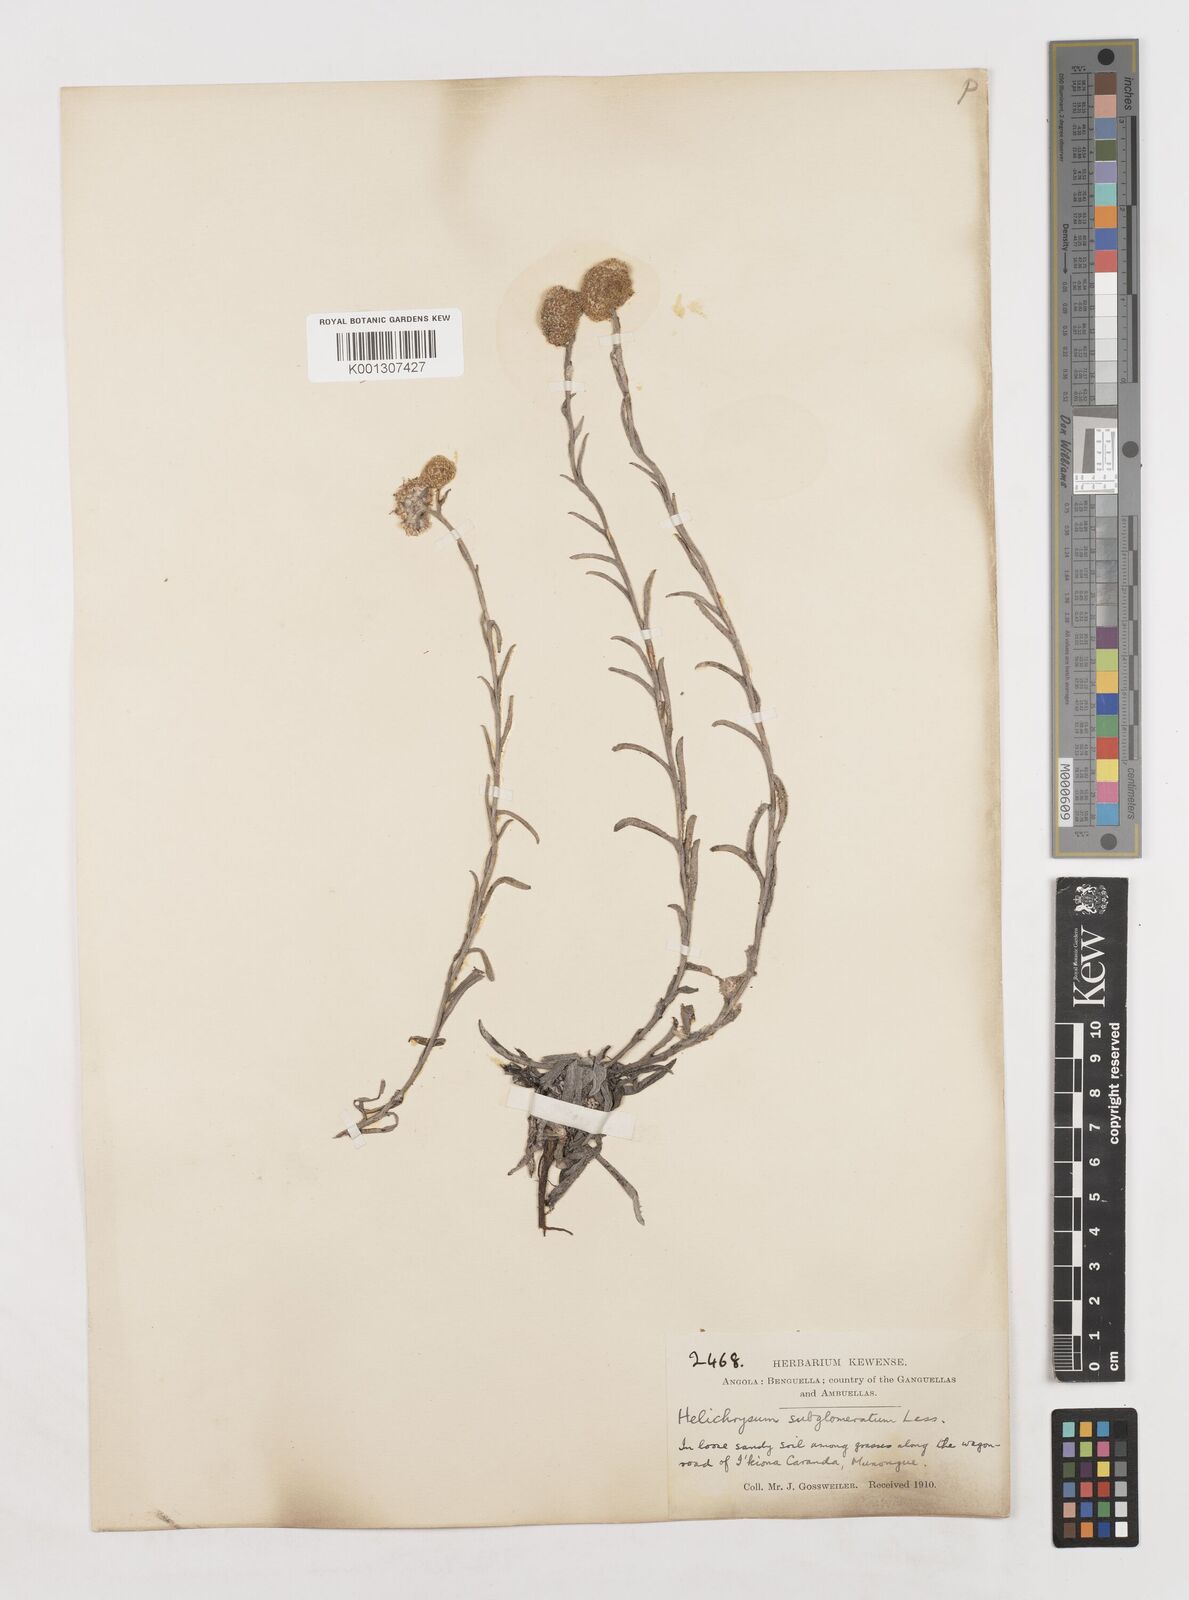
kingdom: Plantae
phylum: Tracheophyta
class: Magnoliopsida
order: Asterales
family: Asteraceae
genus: Helichrysum
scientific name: Helichrysum
